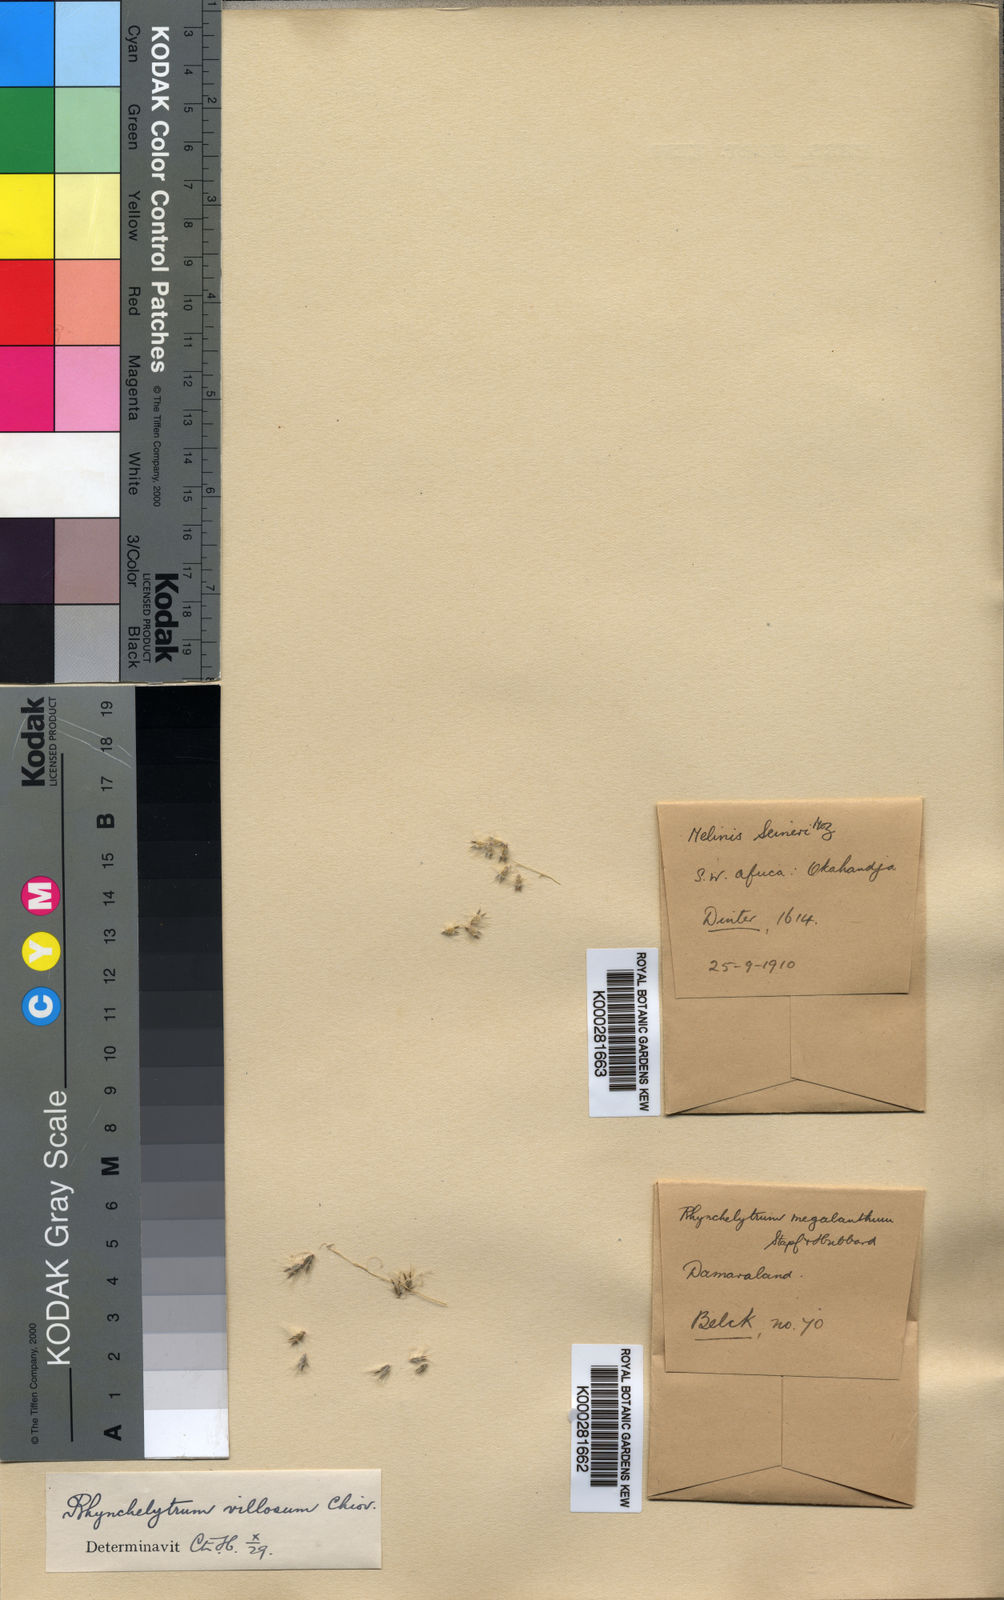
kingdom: Plantae
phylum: Tracheophyta
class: Liliopsida
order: Poales
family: Poaceae
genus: Melinis
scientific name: Melinis repens
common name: Rose natal grass
